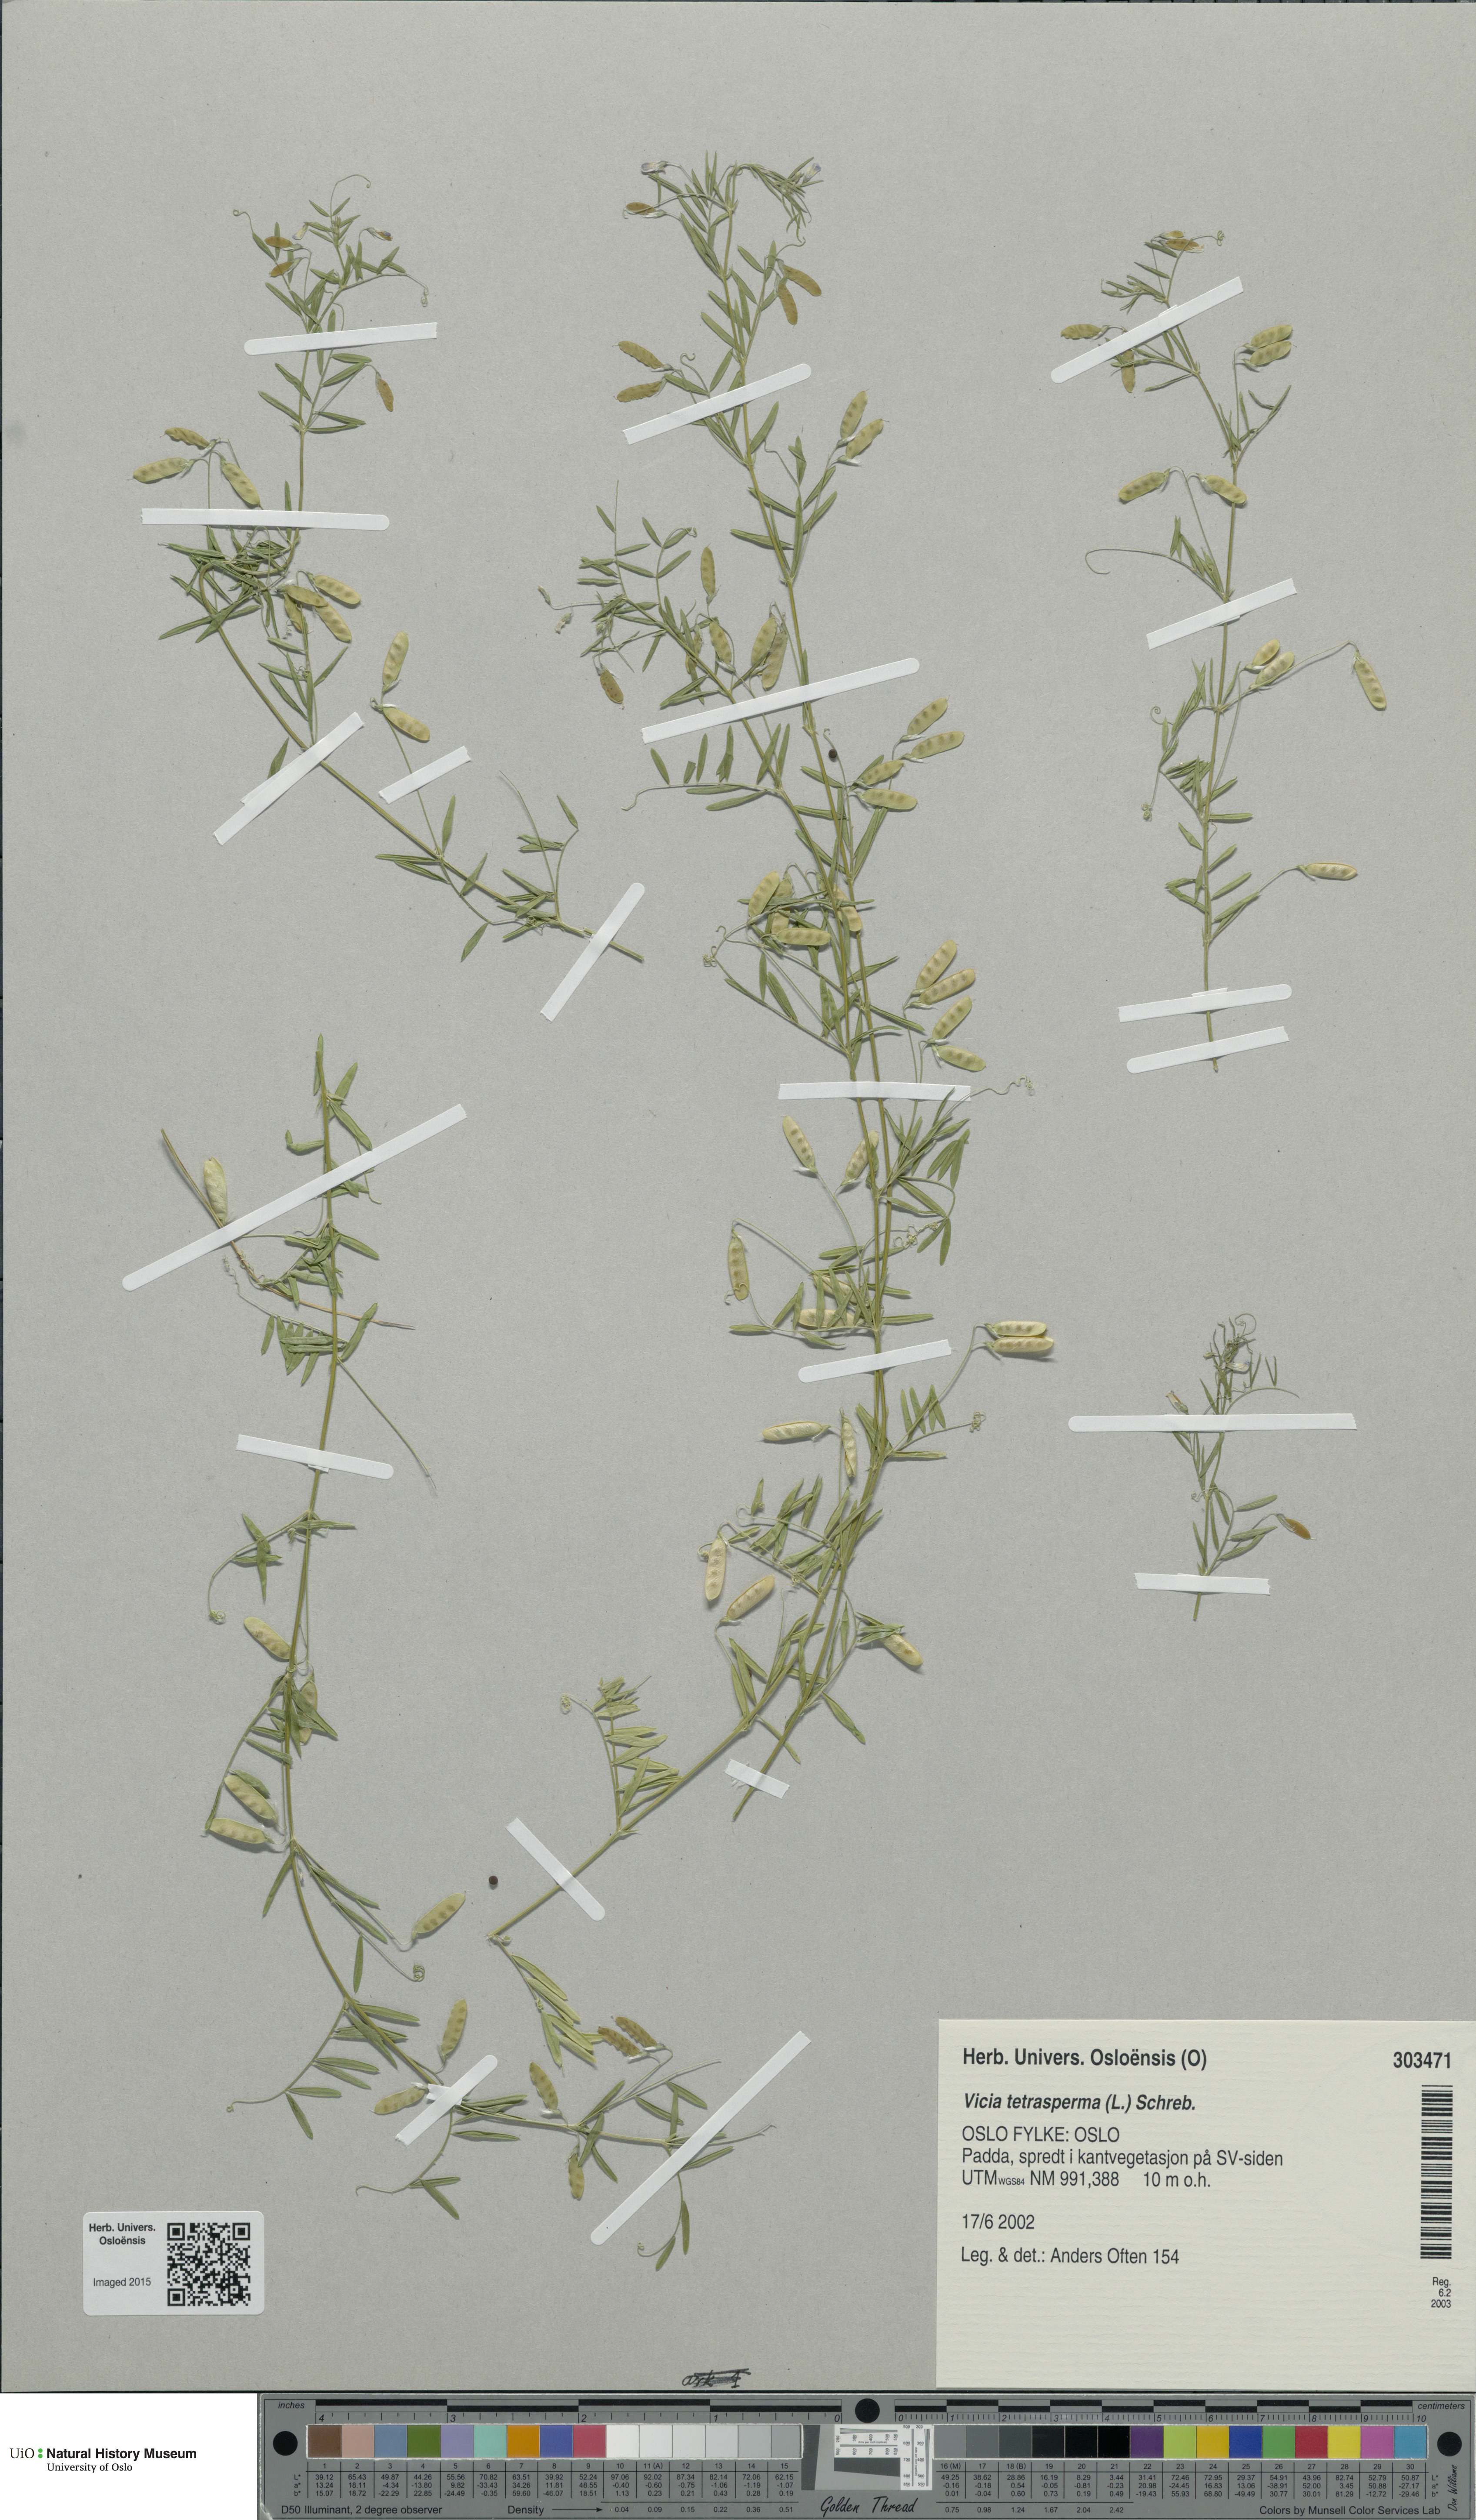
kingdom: Plantae
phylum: Tracheophyta
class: Magnoliopsida
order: Fabales
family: Fabaceae
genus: Vicia
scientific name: Vicia tetrasperma
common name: Smooth tare
